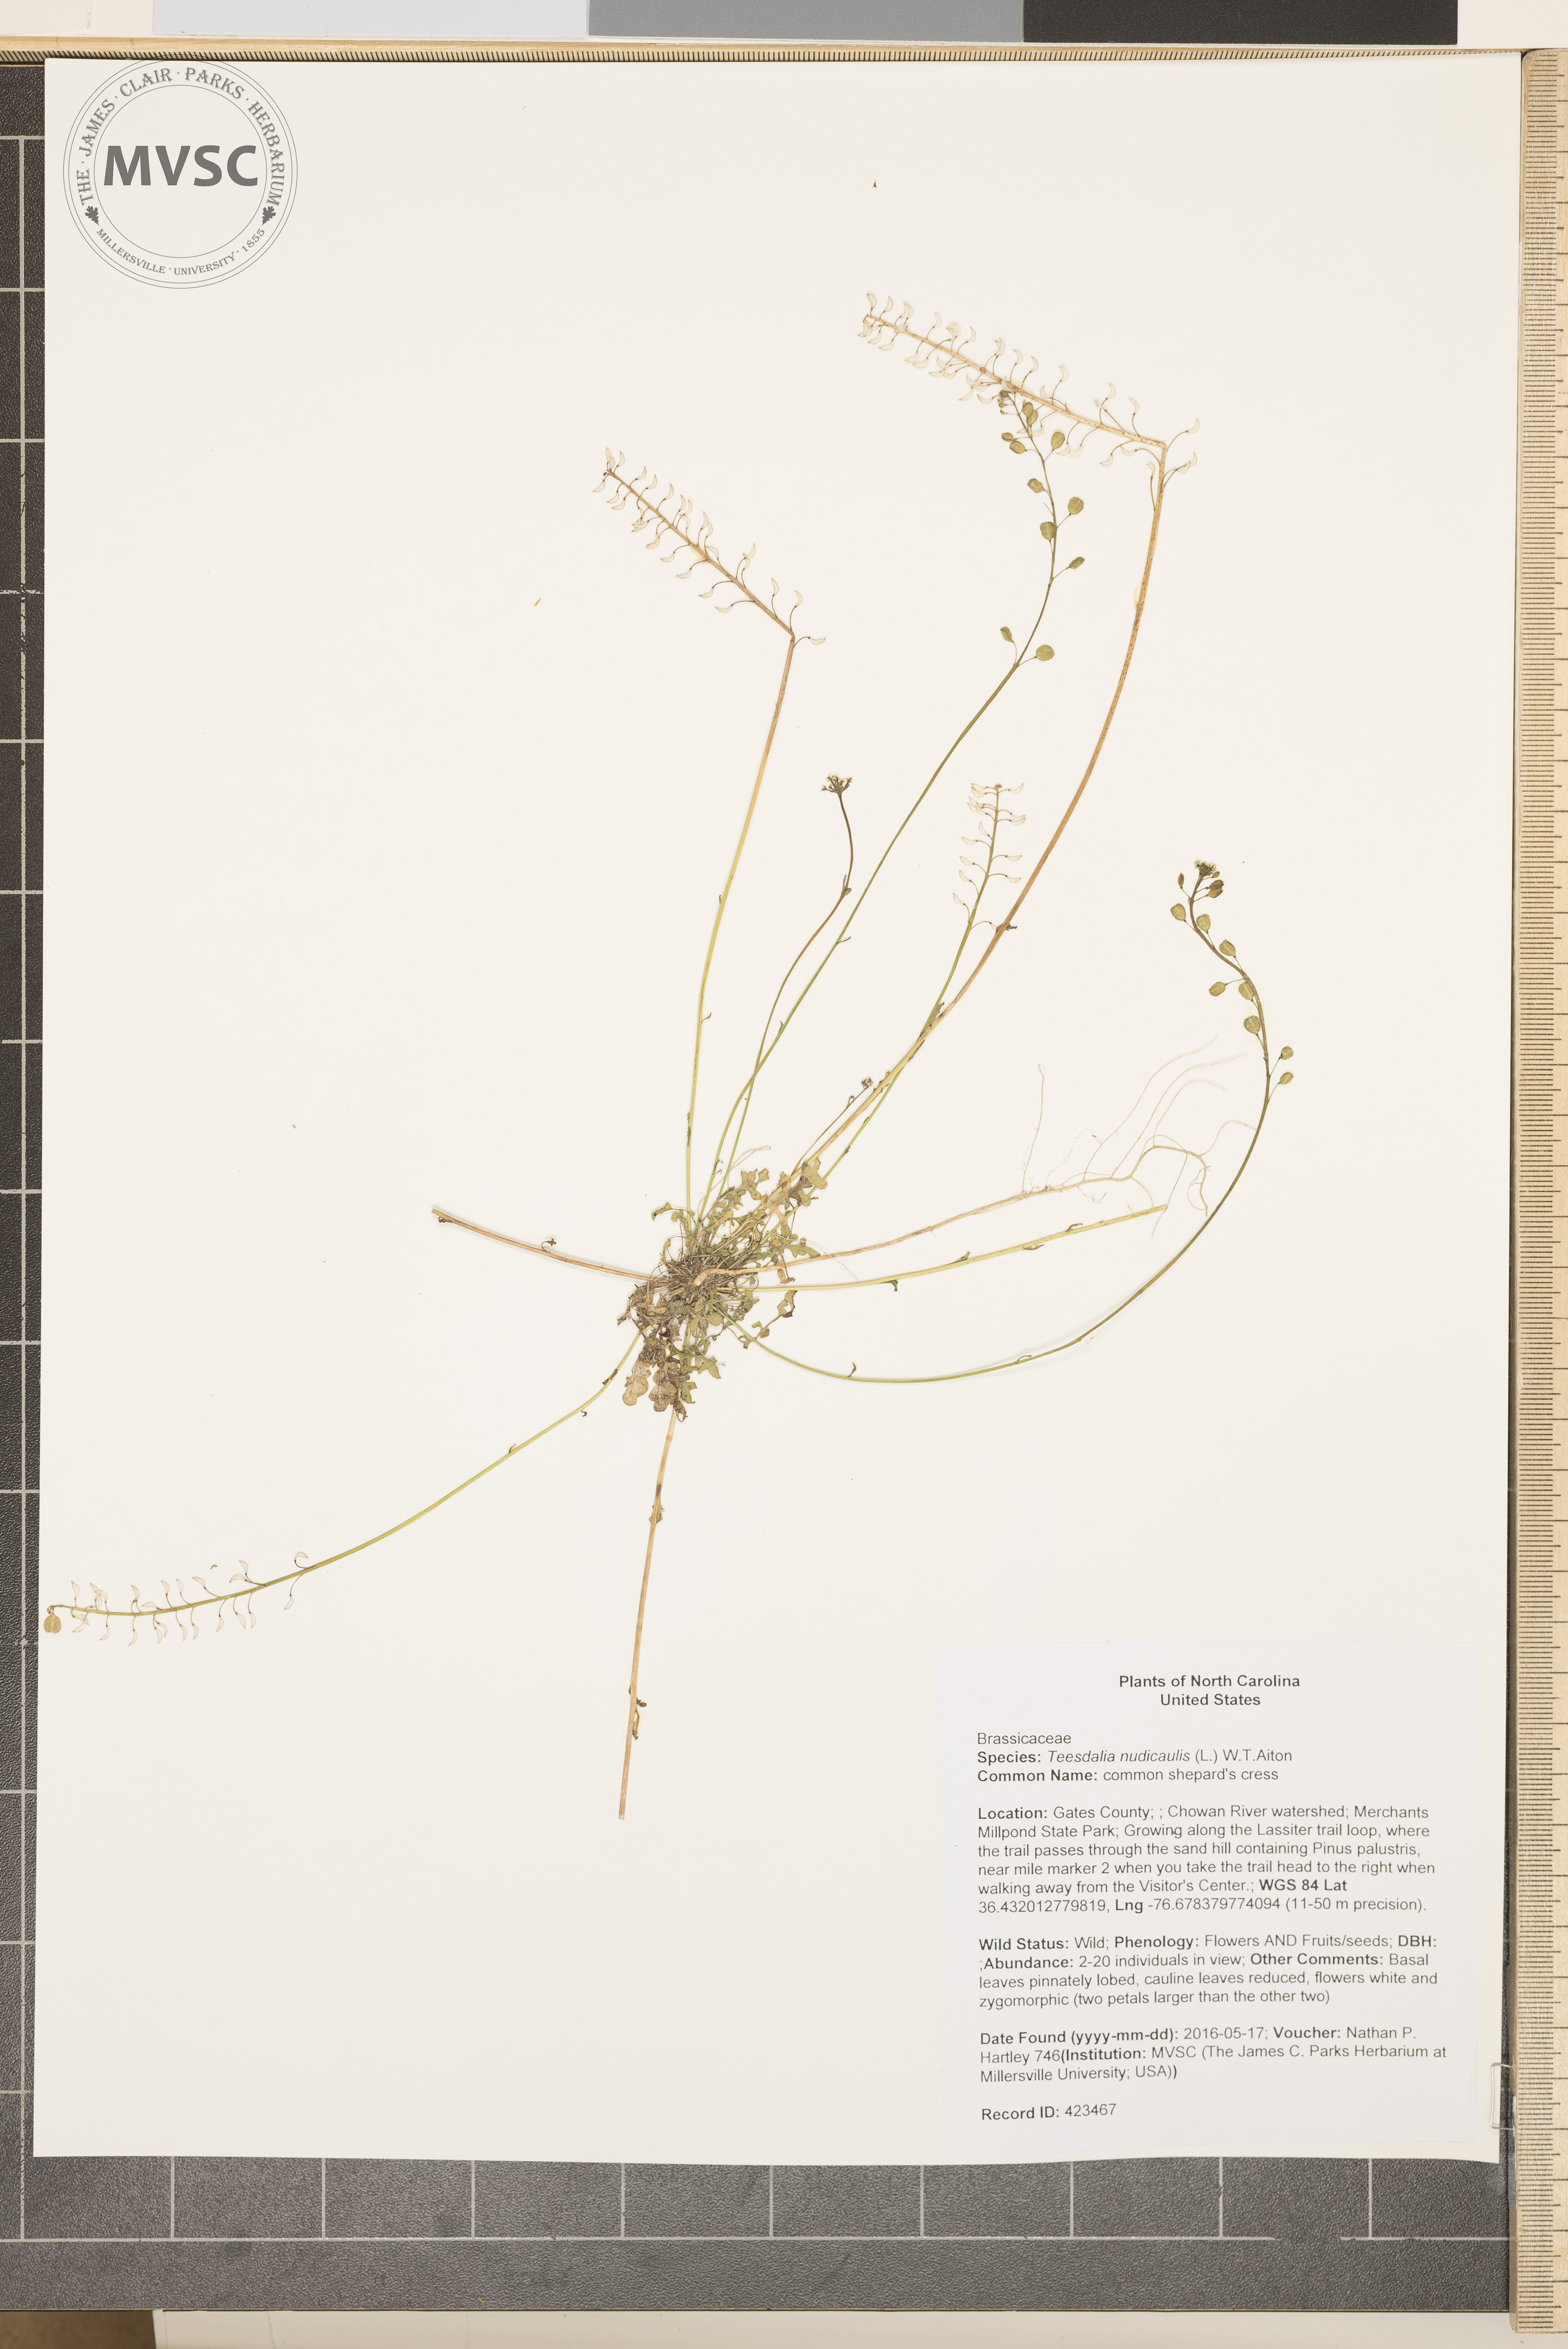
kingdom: Plantae
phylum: Tracheophyta
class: Magnoliopsida
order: Brassicales
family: Brassicaceae
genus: Teesdalia
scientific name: Teesdalia nudicaulis
